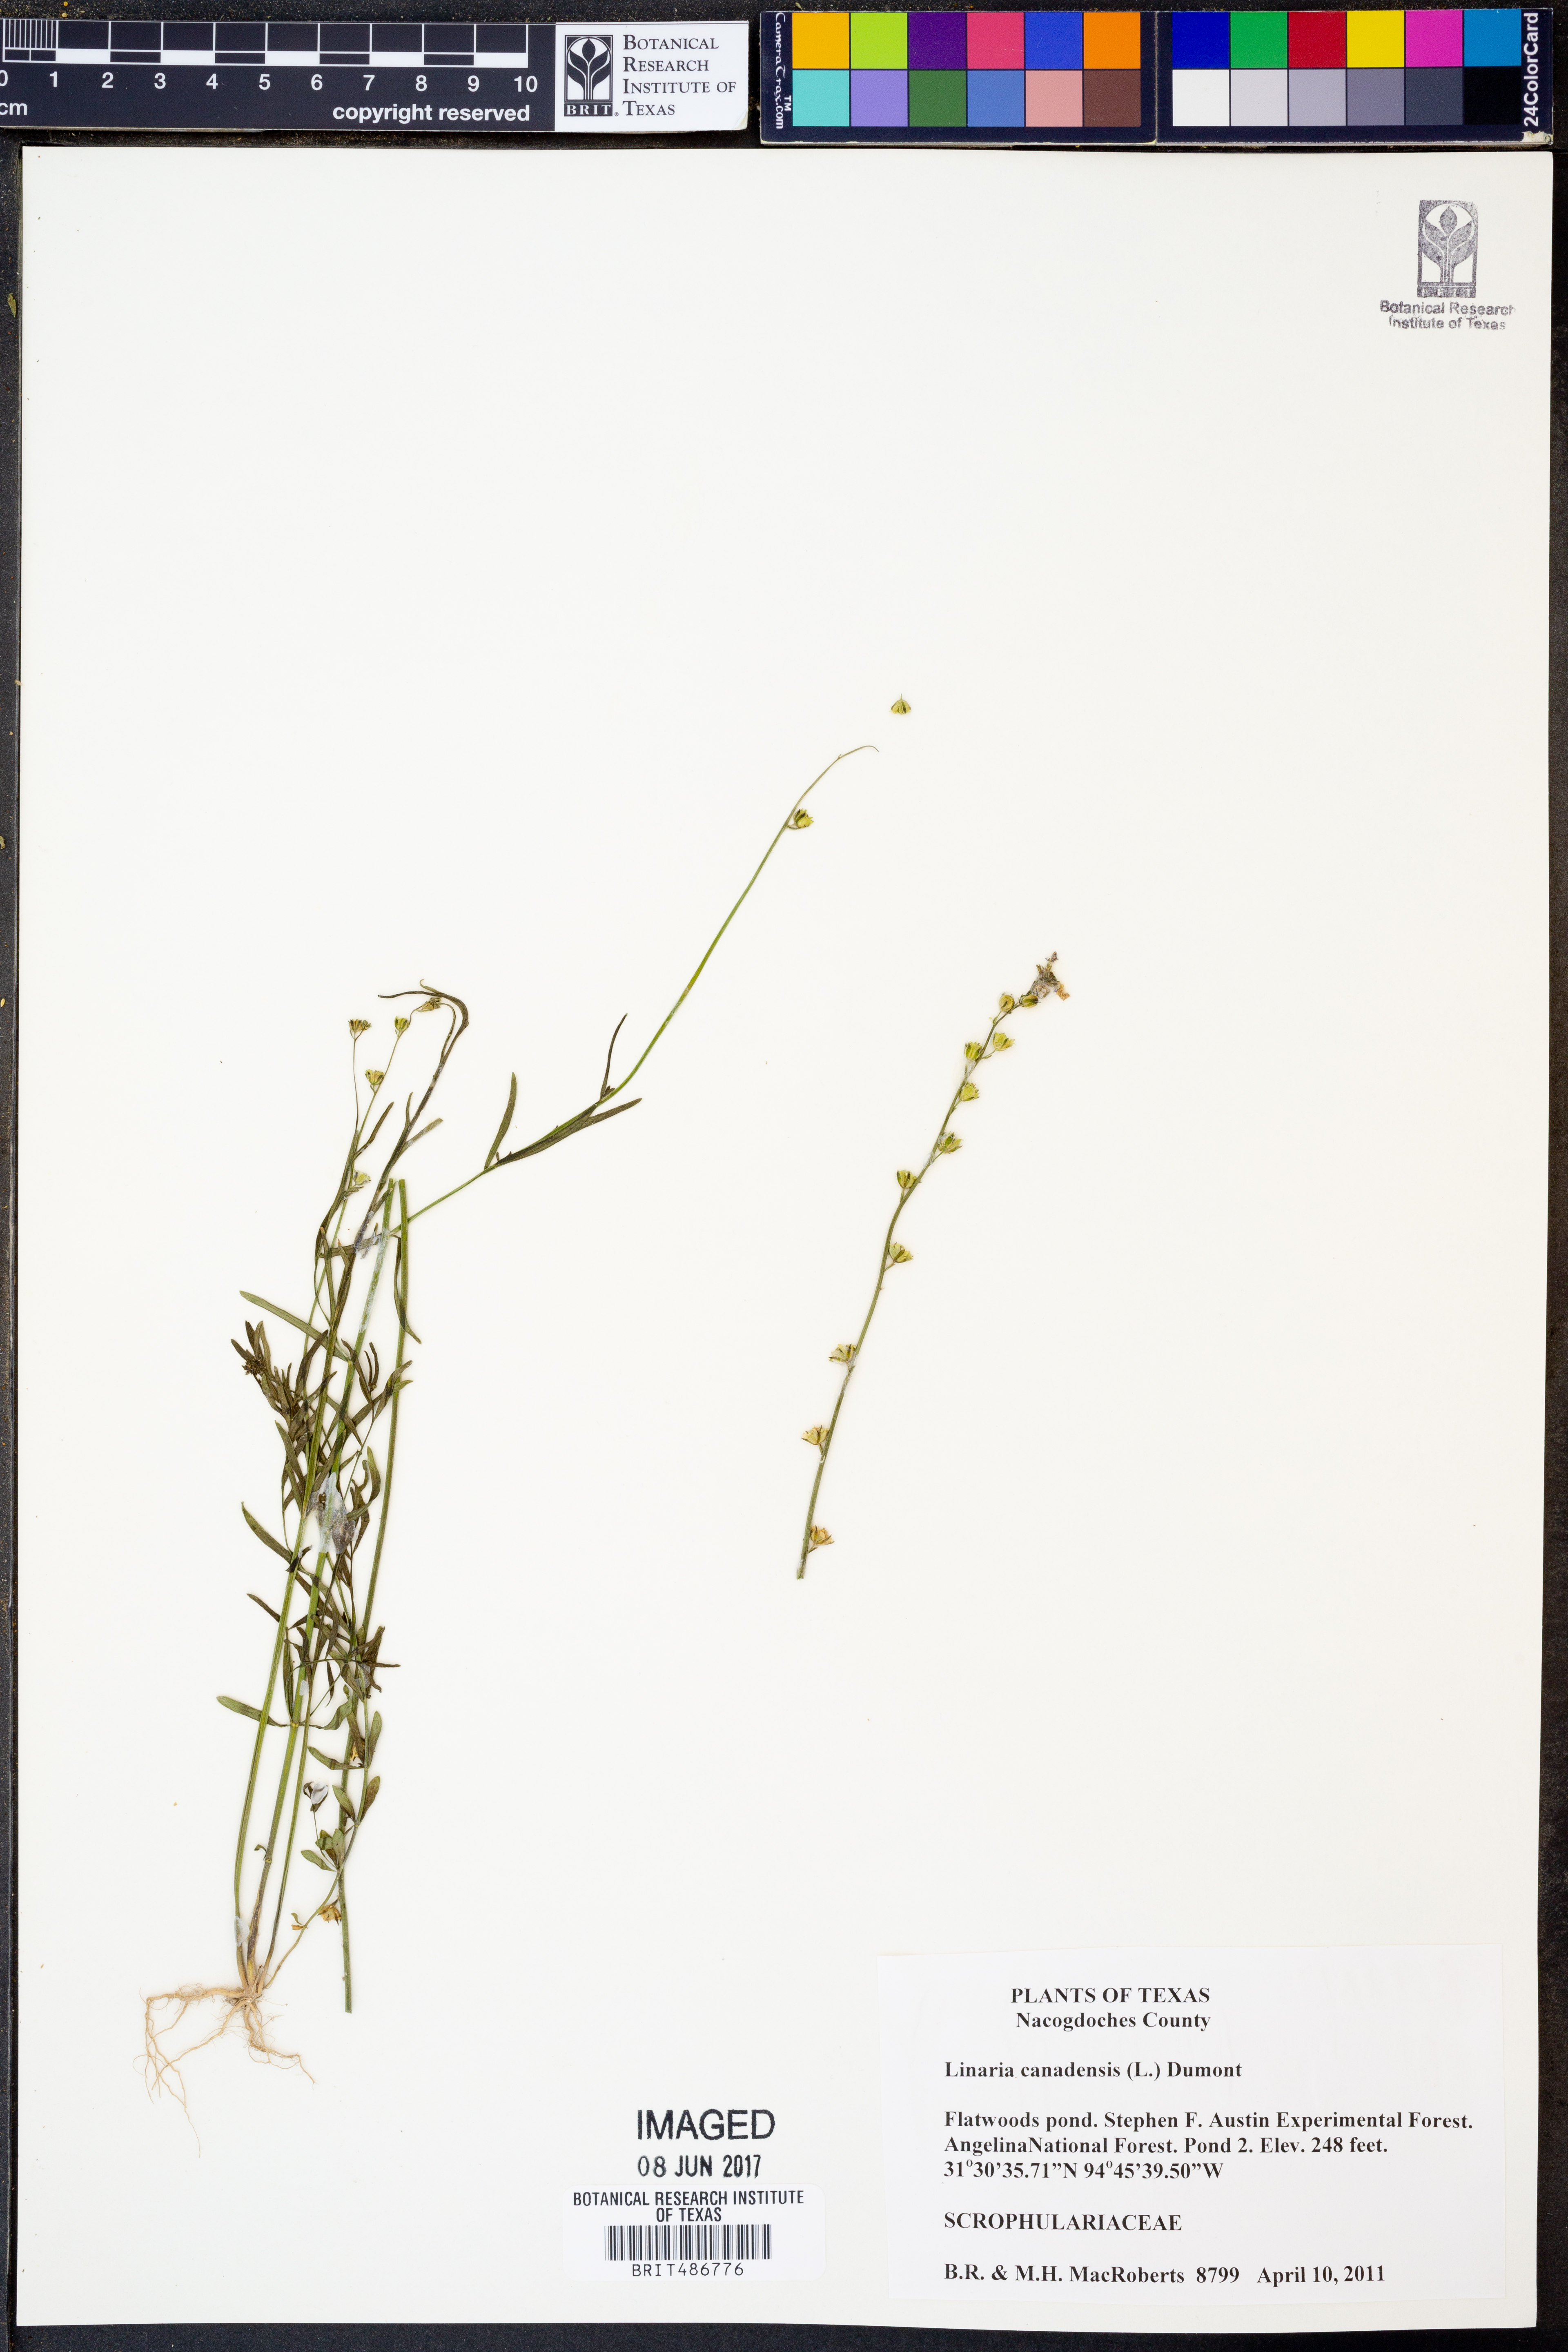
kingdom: Plantae
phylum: Tracheophyta
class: Magnoliopsida
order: Lamiales
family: Plantaginaceae
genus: Nuttallanthus
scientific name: Nuttallanthus canadensis
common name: Blue toadflax
